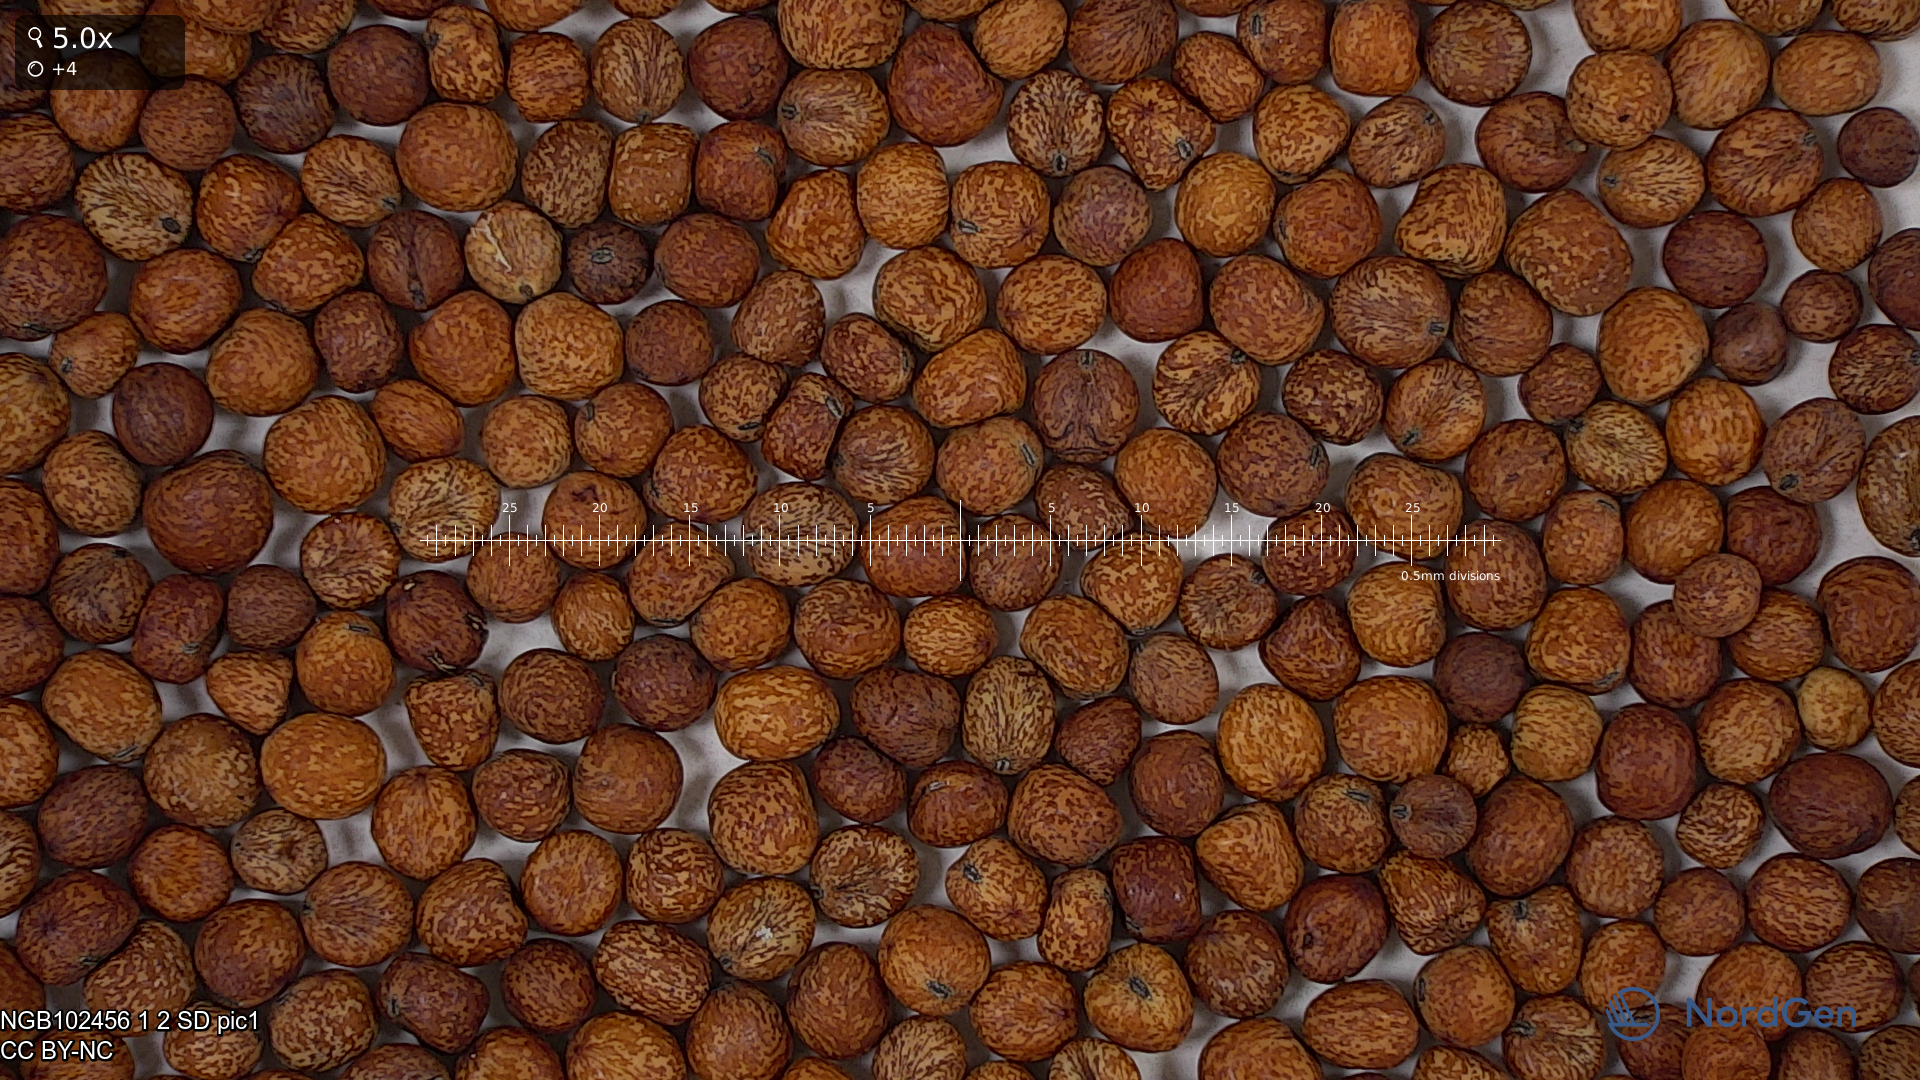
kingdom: Plantae
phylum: Tracheophyta
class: Magnoliopsida
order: Fabales
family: Fabaceae
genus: Lathyrus
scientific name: Lathyrus oleraceus
